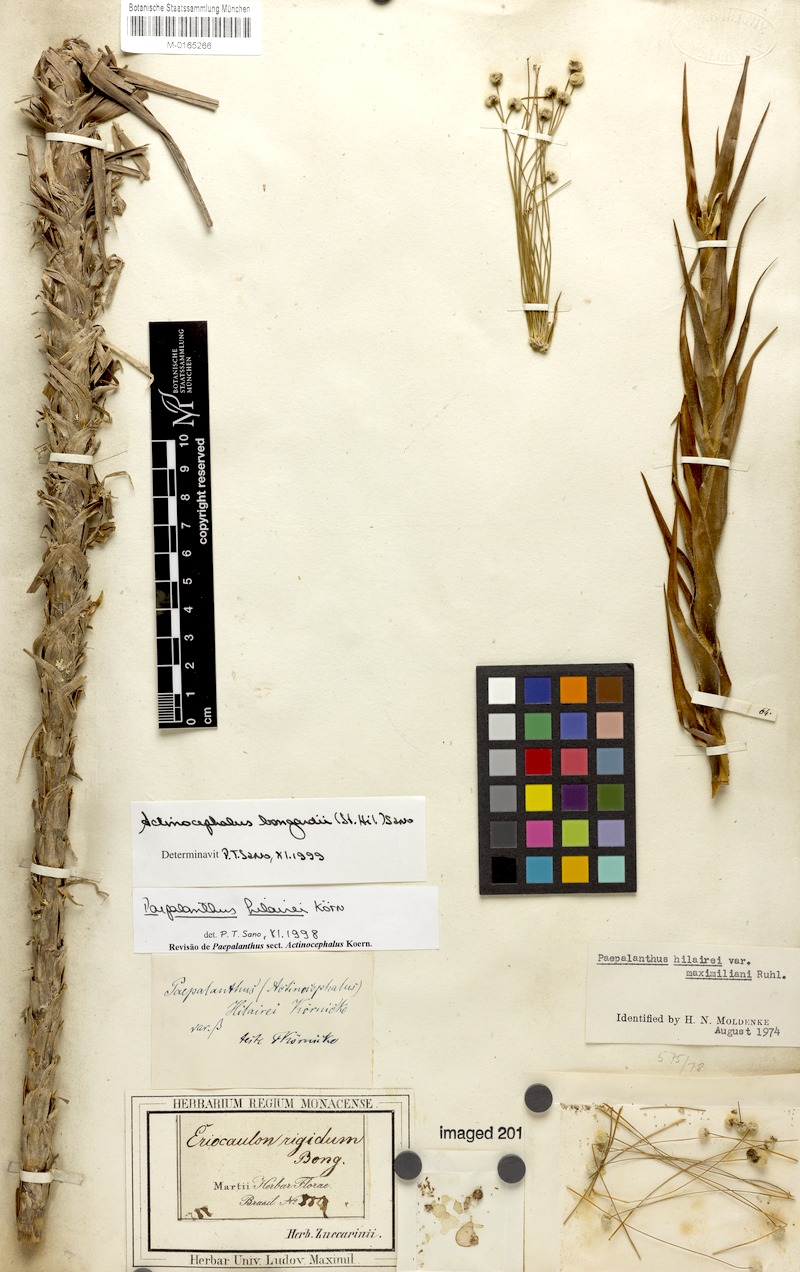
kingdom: Plantae
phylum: Tracheophyta
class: Liliopsida
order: Poales
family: Eriocaulaceae
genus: Paepalanthus
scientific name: Paepalanthus hilairei
